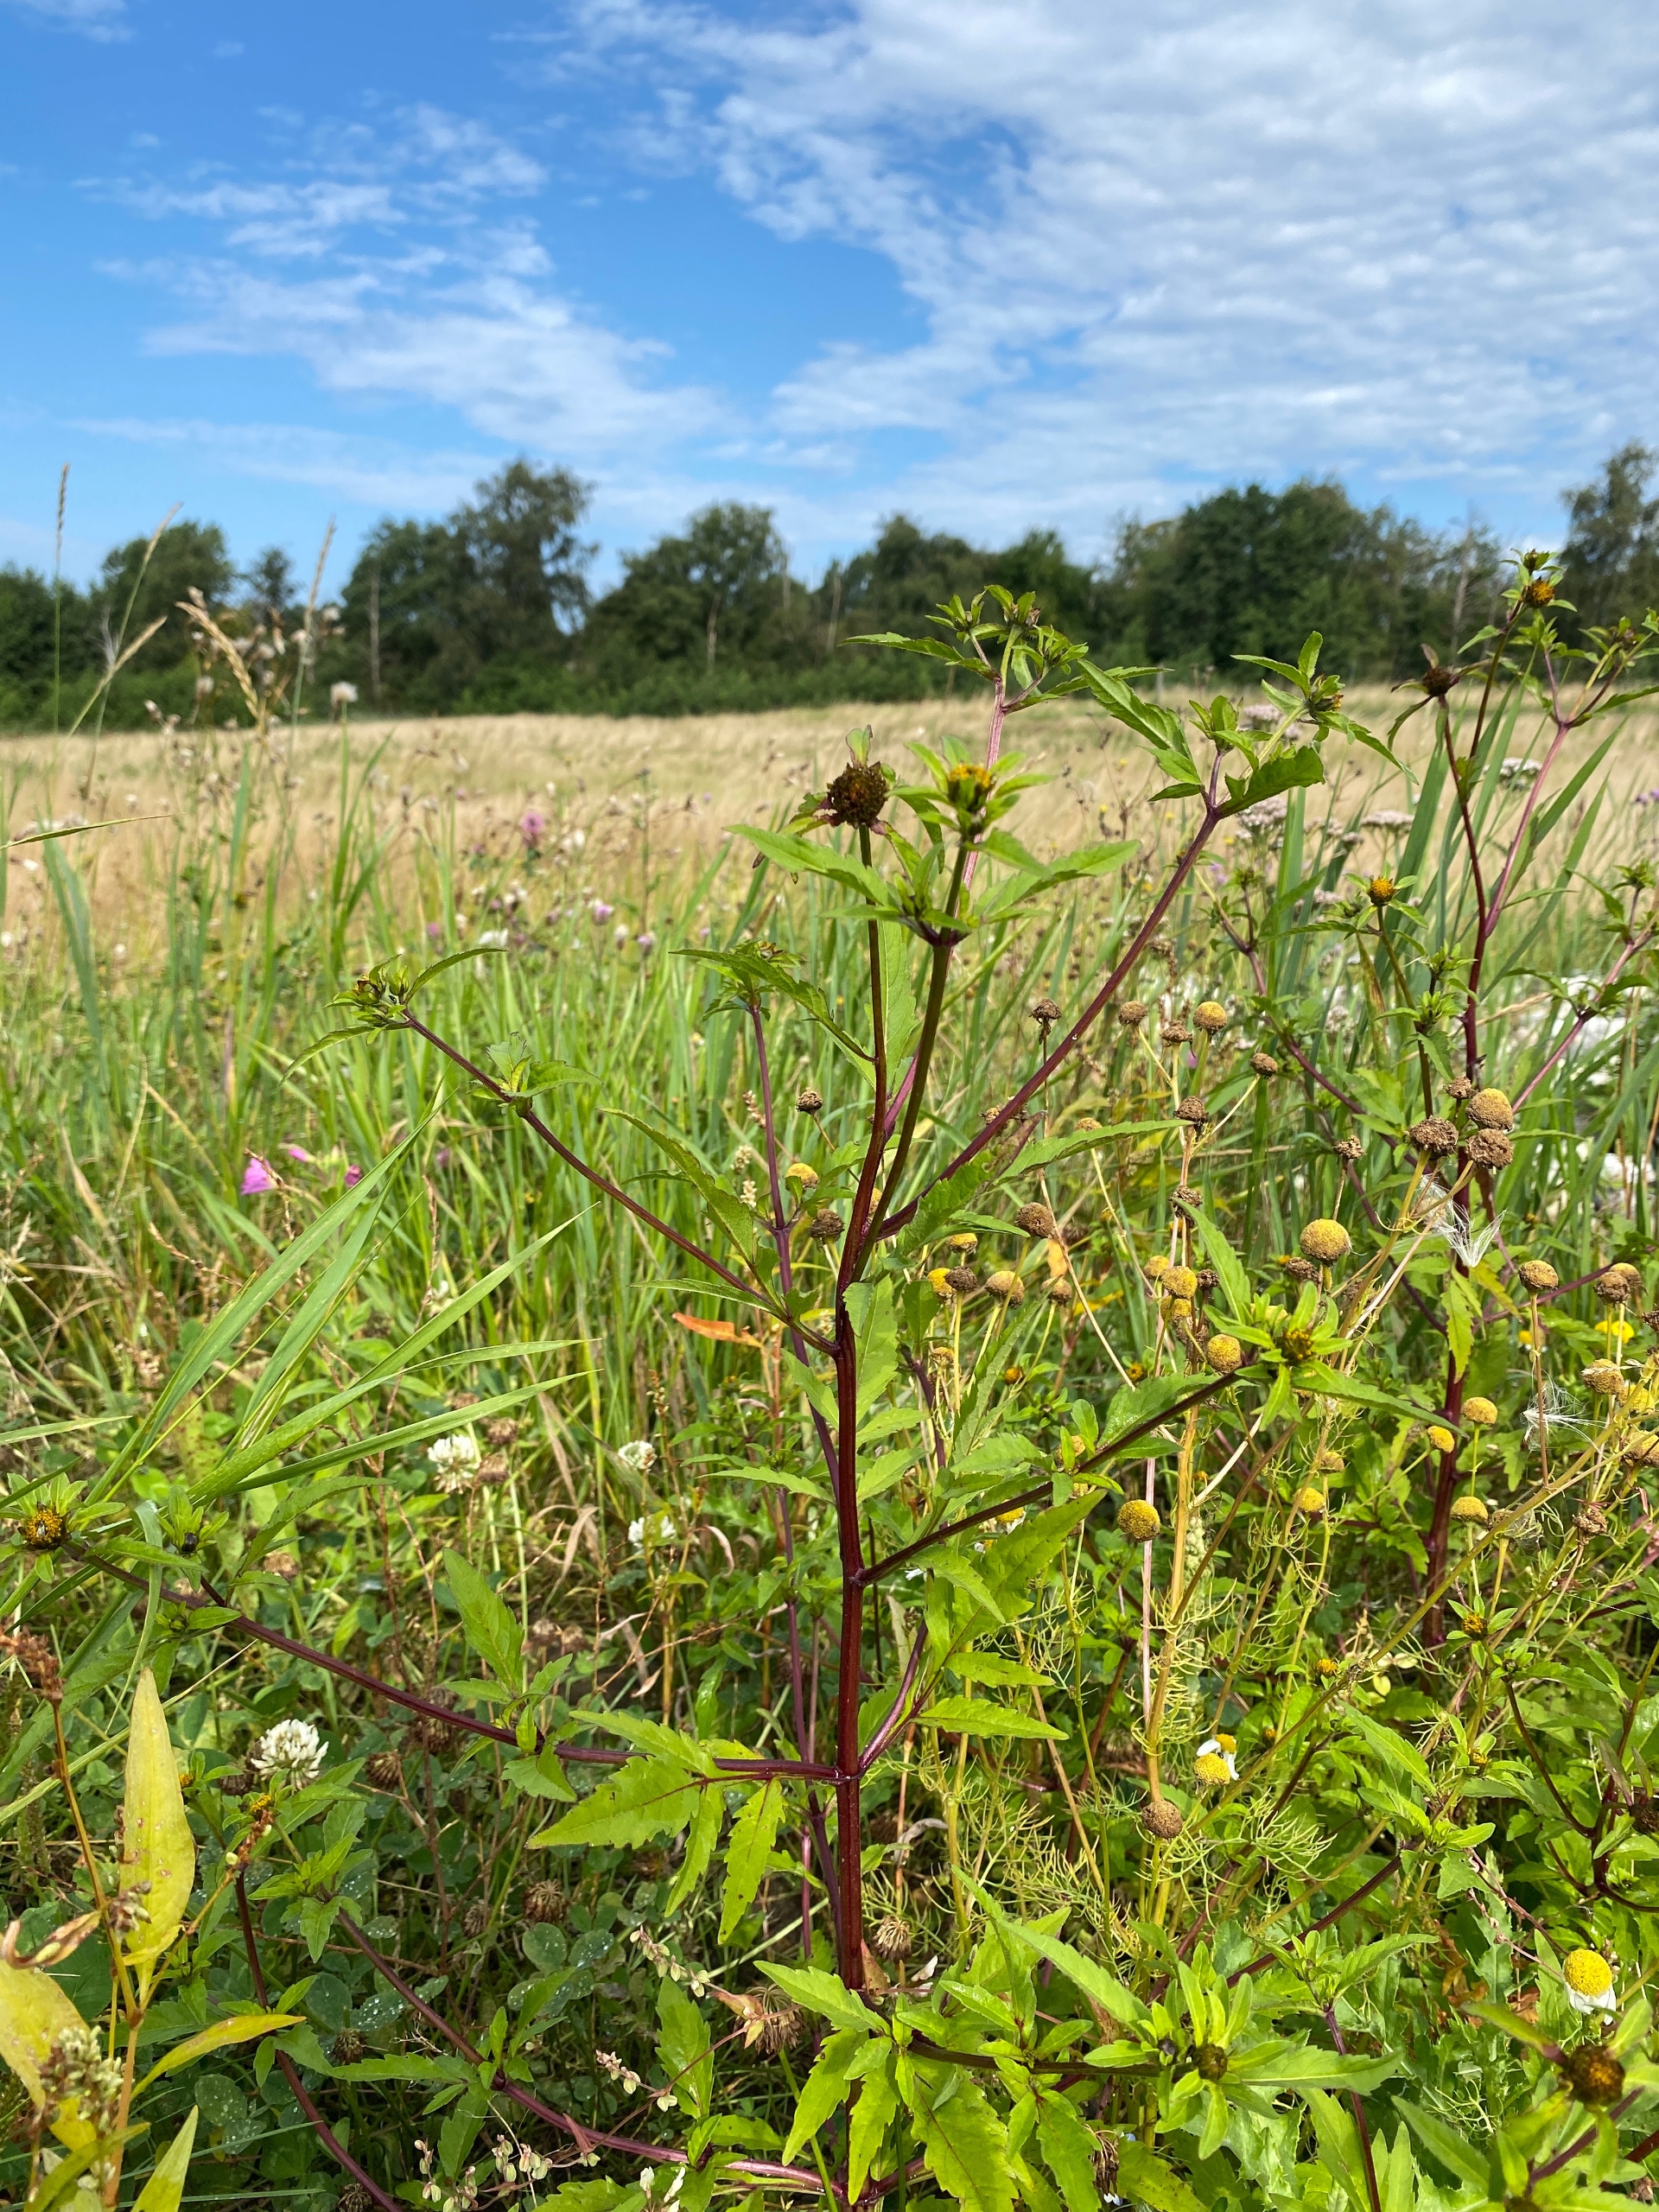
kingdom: Plantae
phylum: Tracheophyta
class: Magnoliopsida
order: Asterales
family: Asteraceae
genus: Bidens
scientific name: Bidens tripartita
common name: Fliget brøndsel
